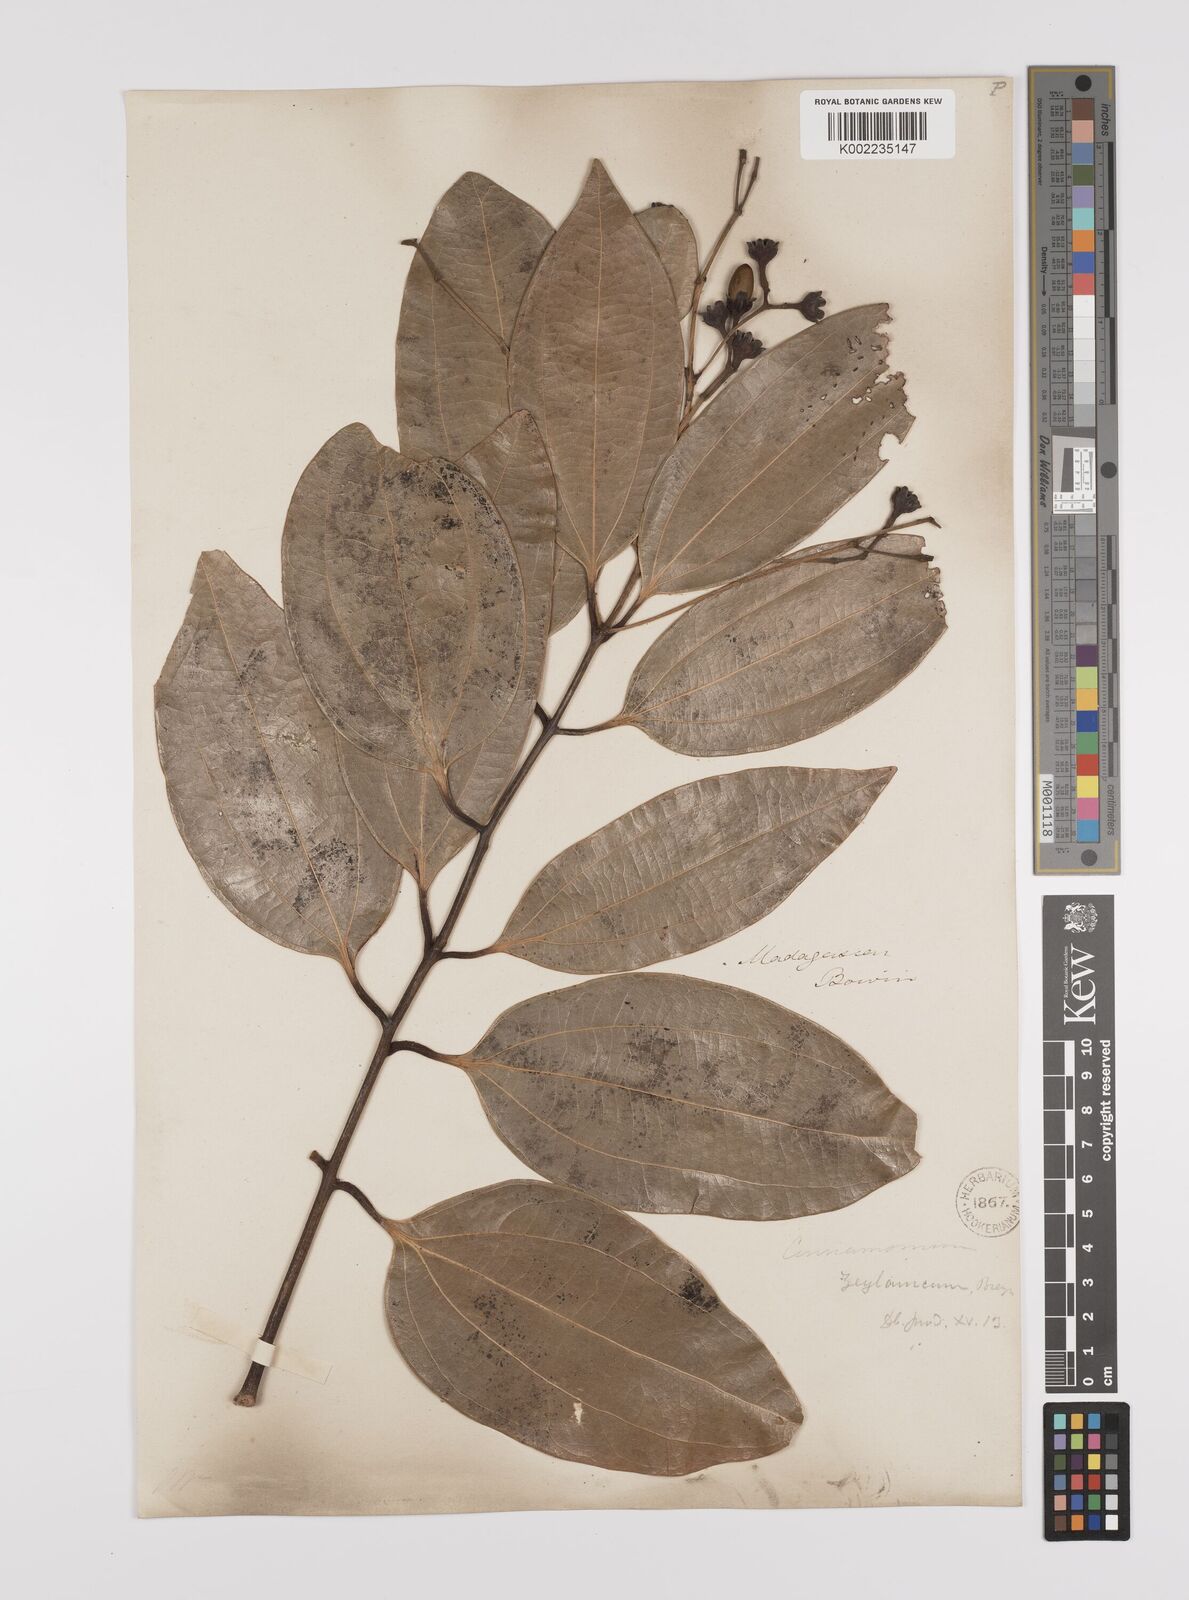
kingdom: Plantae
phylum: Tracheophyta
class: Magnoliopsida
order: Laurales
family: Lauraceae
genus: Cinnamomum
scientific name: Cinnamomum verum
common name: Cinnamon
